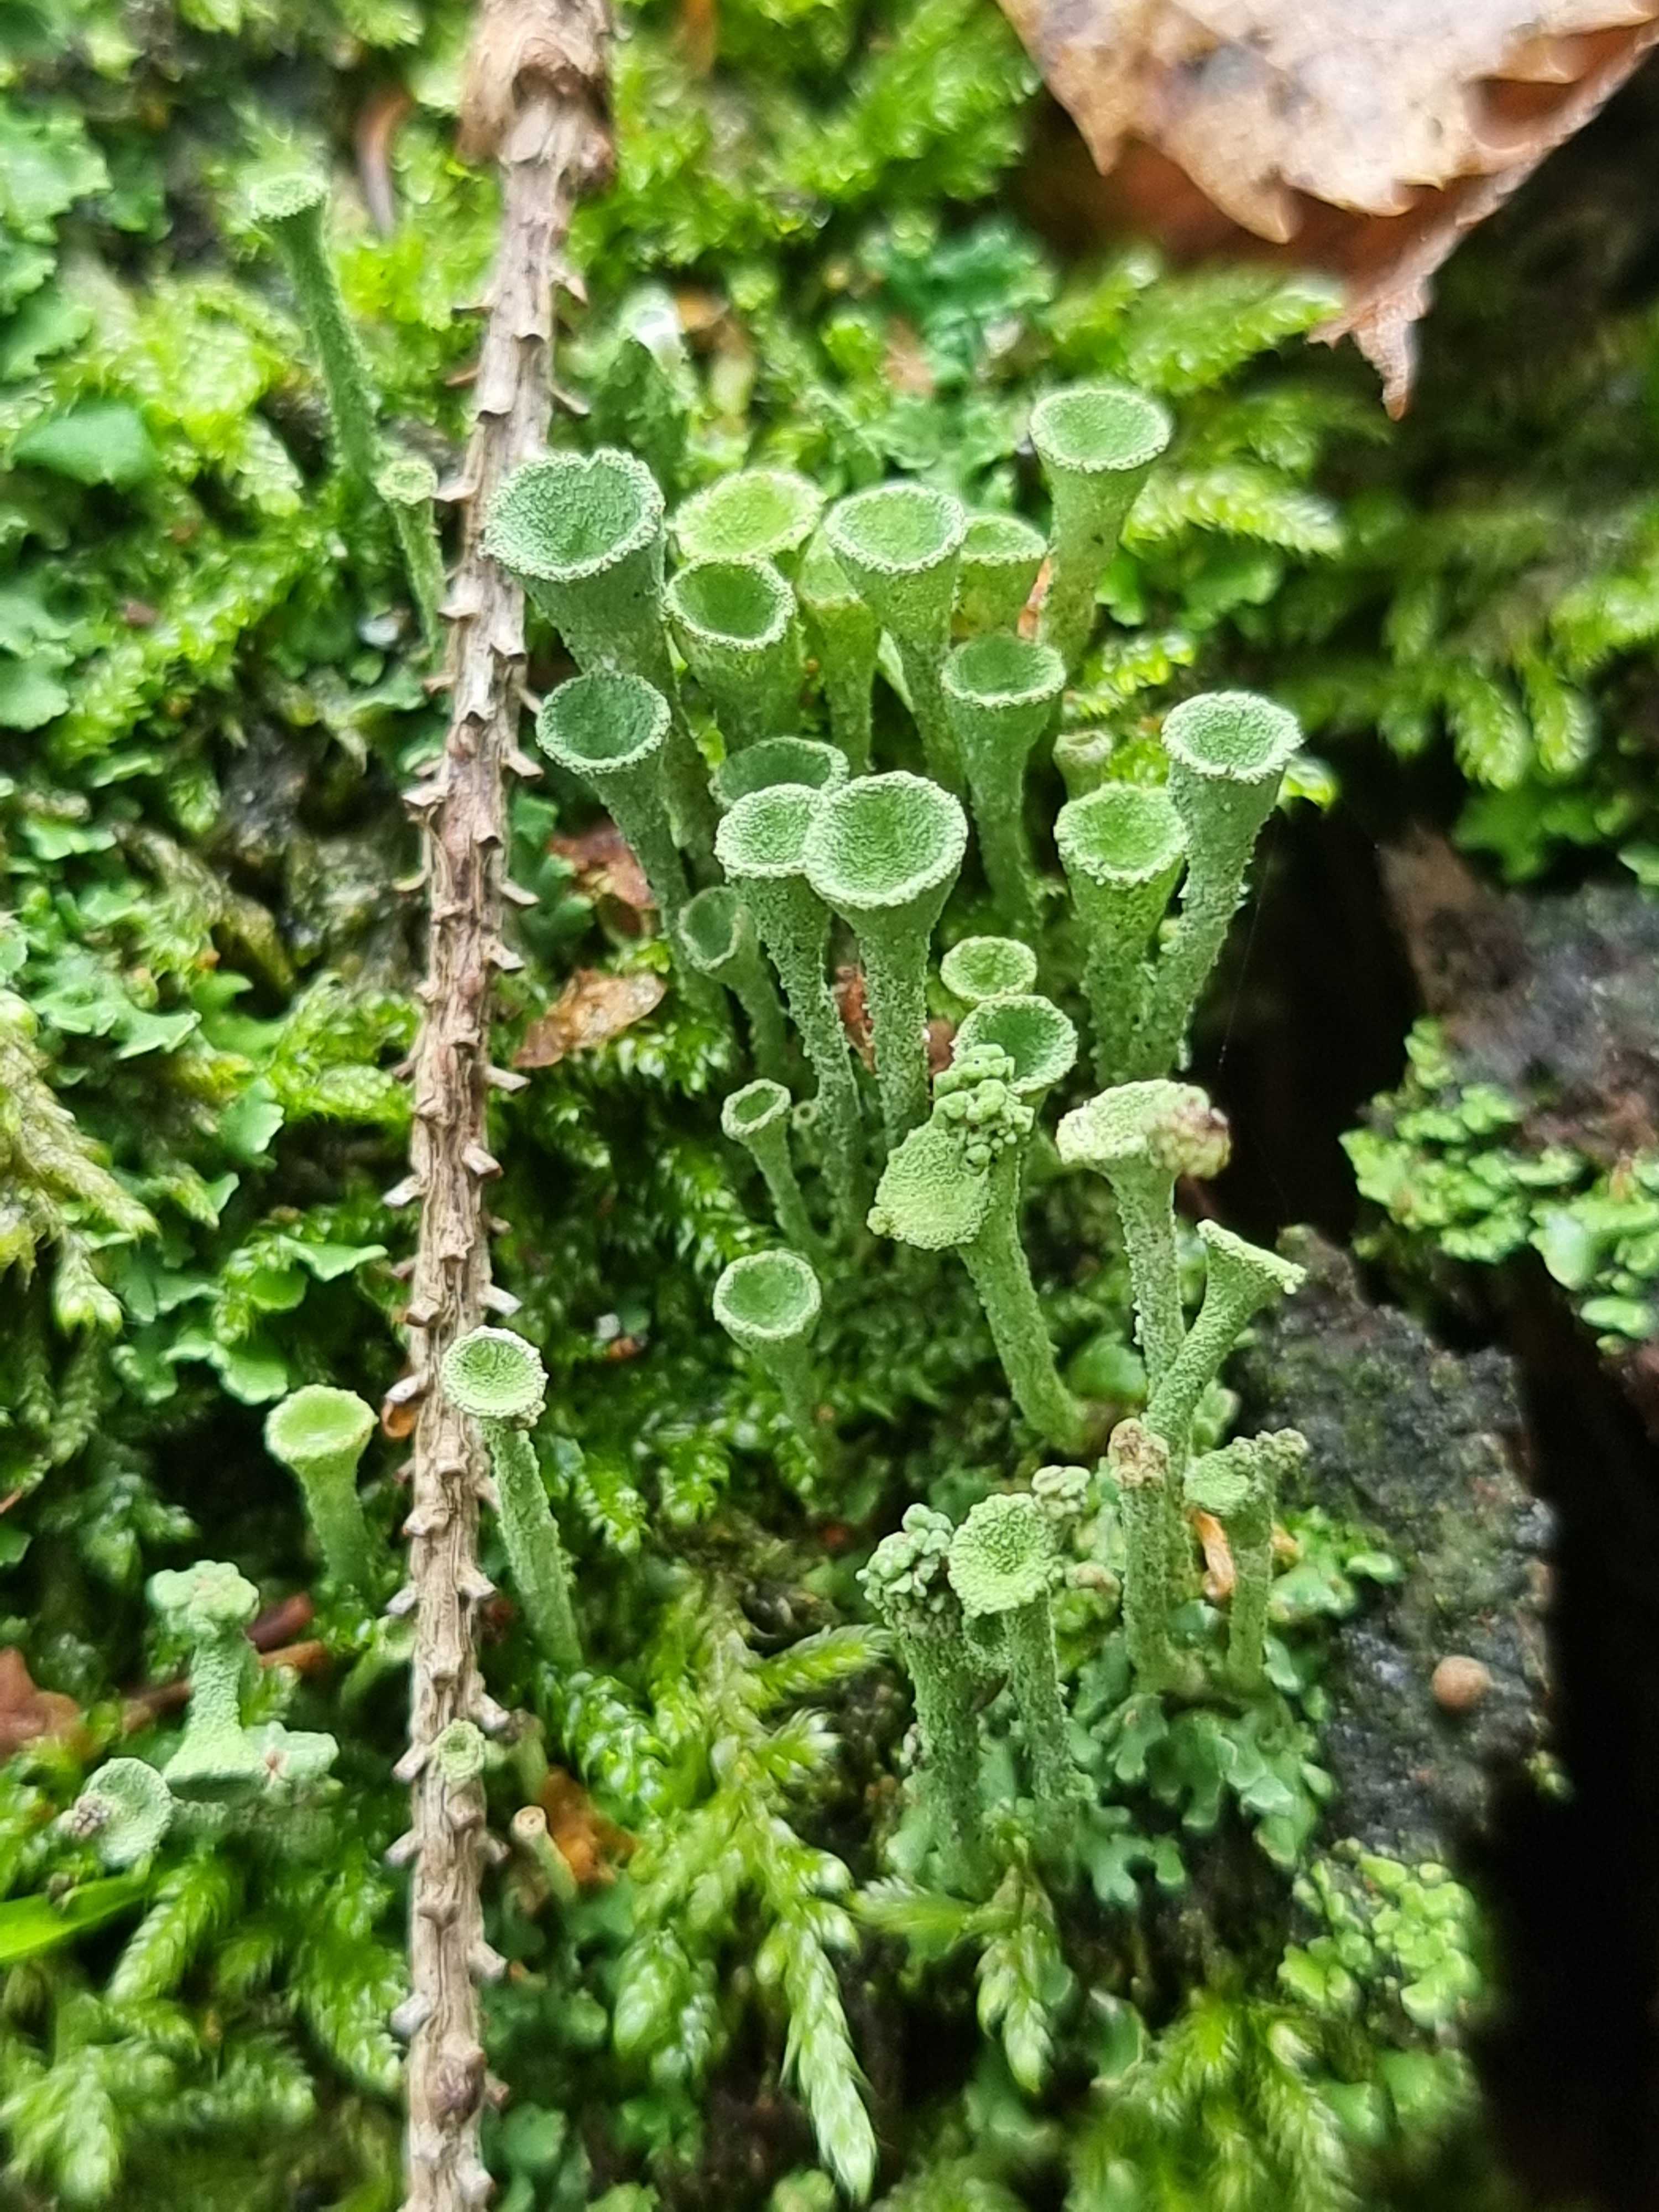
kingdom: Fungi
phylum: Ascomycota
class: Lecanoromycetes
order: Lecanorales
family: Cladoniaceae
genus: Cladonia
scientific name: Cladonia fimbriata
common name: bleggrøn bægerlav
